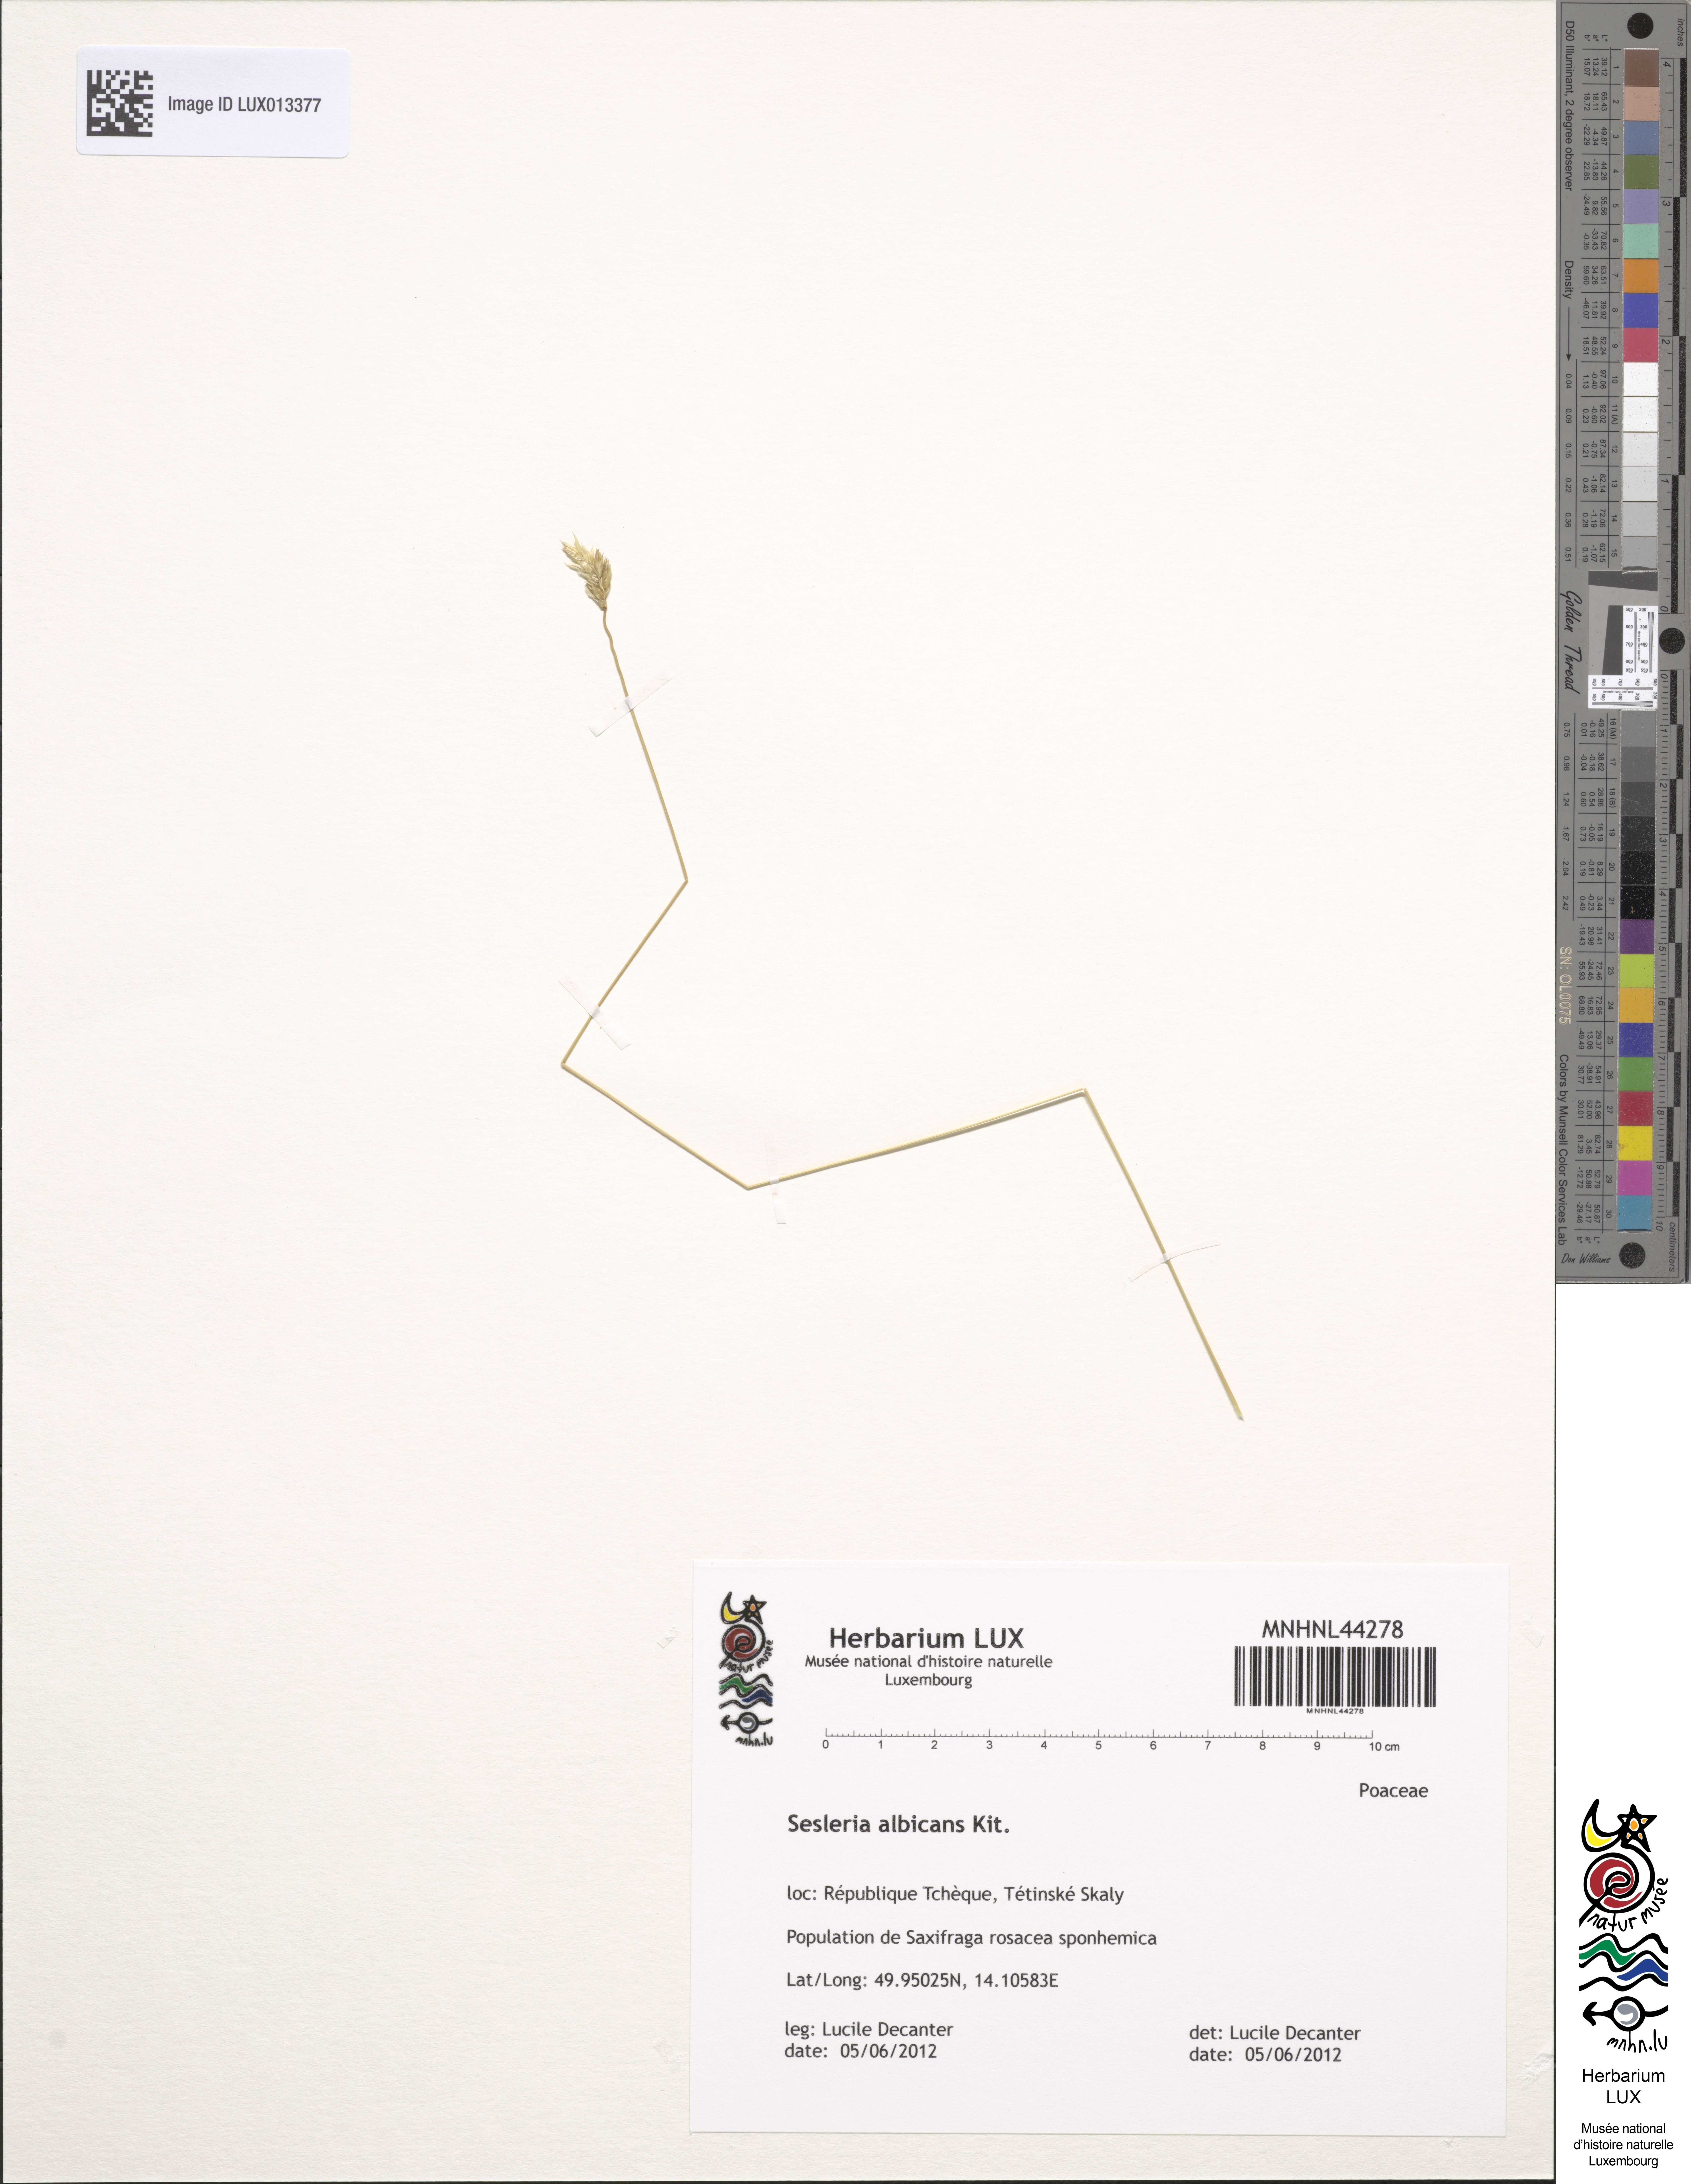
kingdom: Plantae
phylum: Tracheophyta
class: Liliopsida
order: Poales
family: Poaceae
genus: Sesleria
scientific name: Sesleria albicans
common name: Blue moor-grass
